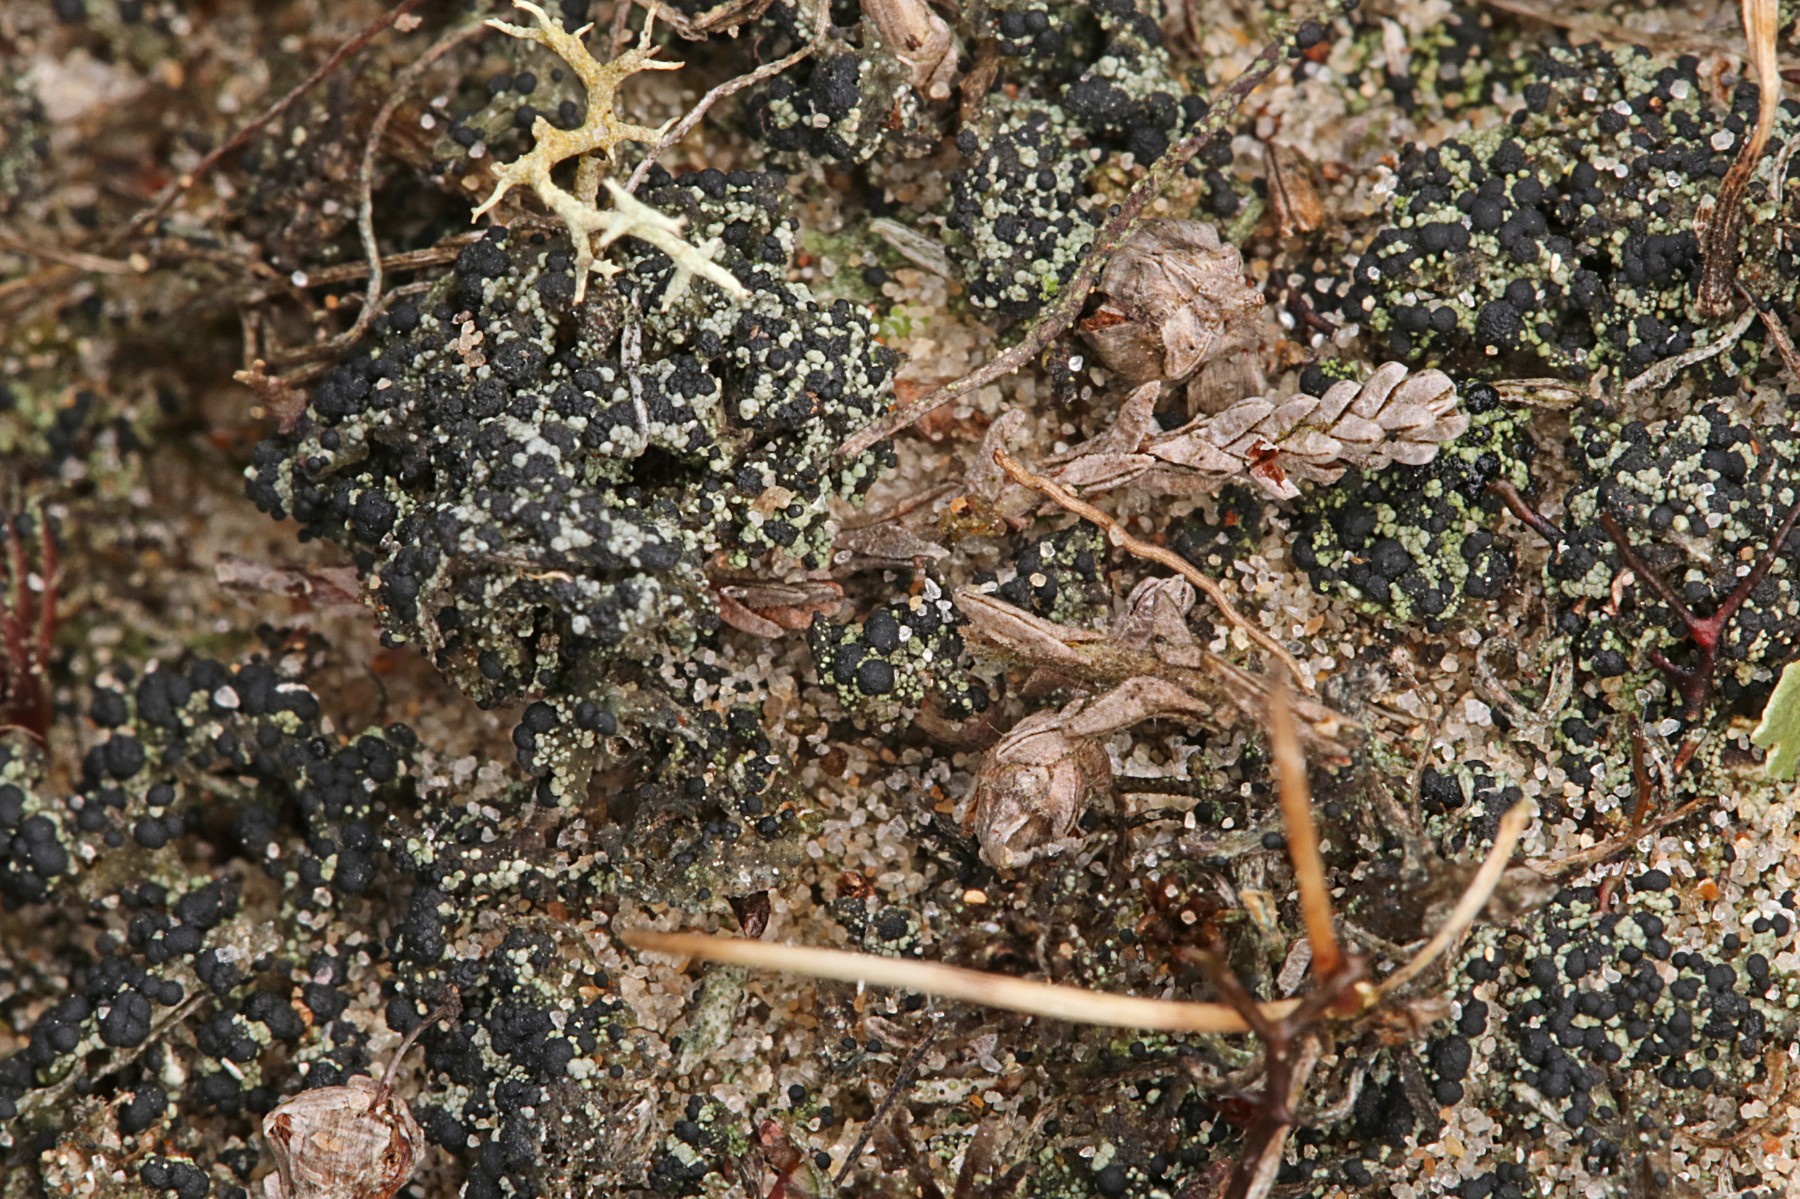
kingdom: Fungi
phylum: Ascomycota
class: Lecanoromycetes
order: Lecanorales
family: Byssolomataceae
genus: Micarea
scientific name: Micarea lignaria
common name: tørve-knaplav
